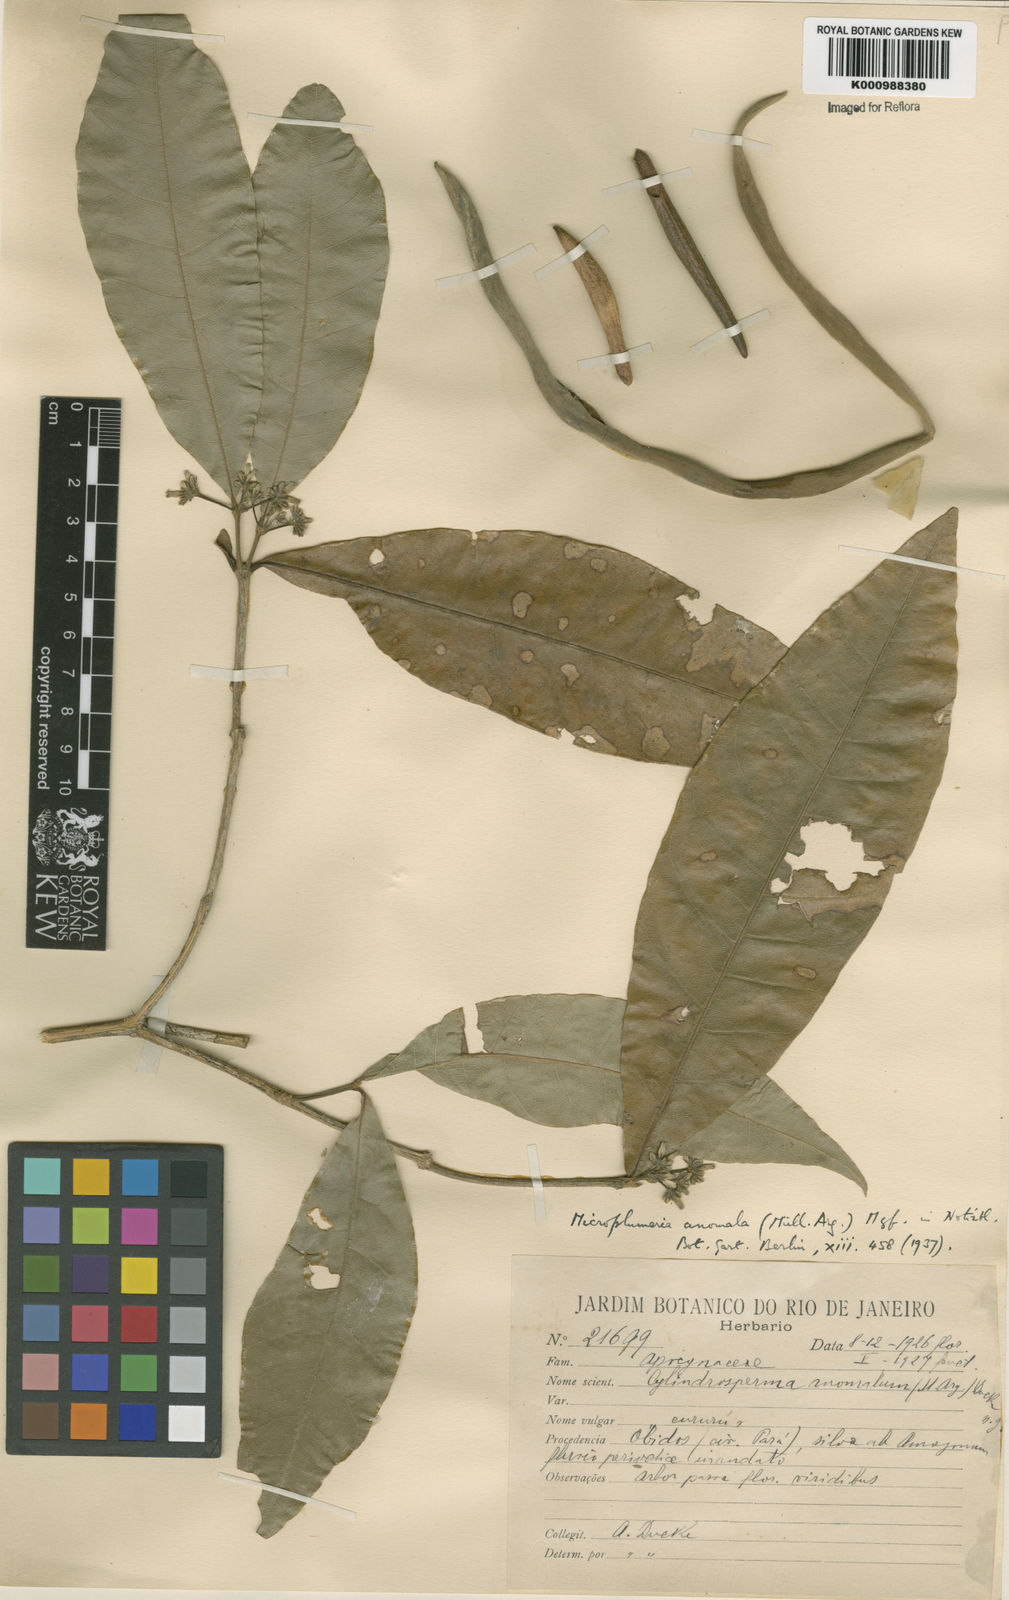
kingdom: Plantae
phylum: Tracheophyta
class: Magnoliopsida
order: Gentianales
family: Apocynaceae
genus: Microplumeria
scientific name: Microplumeria
